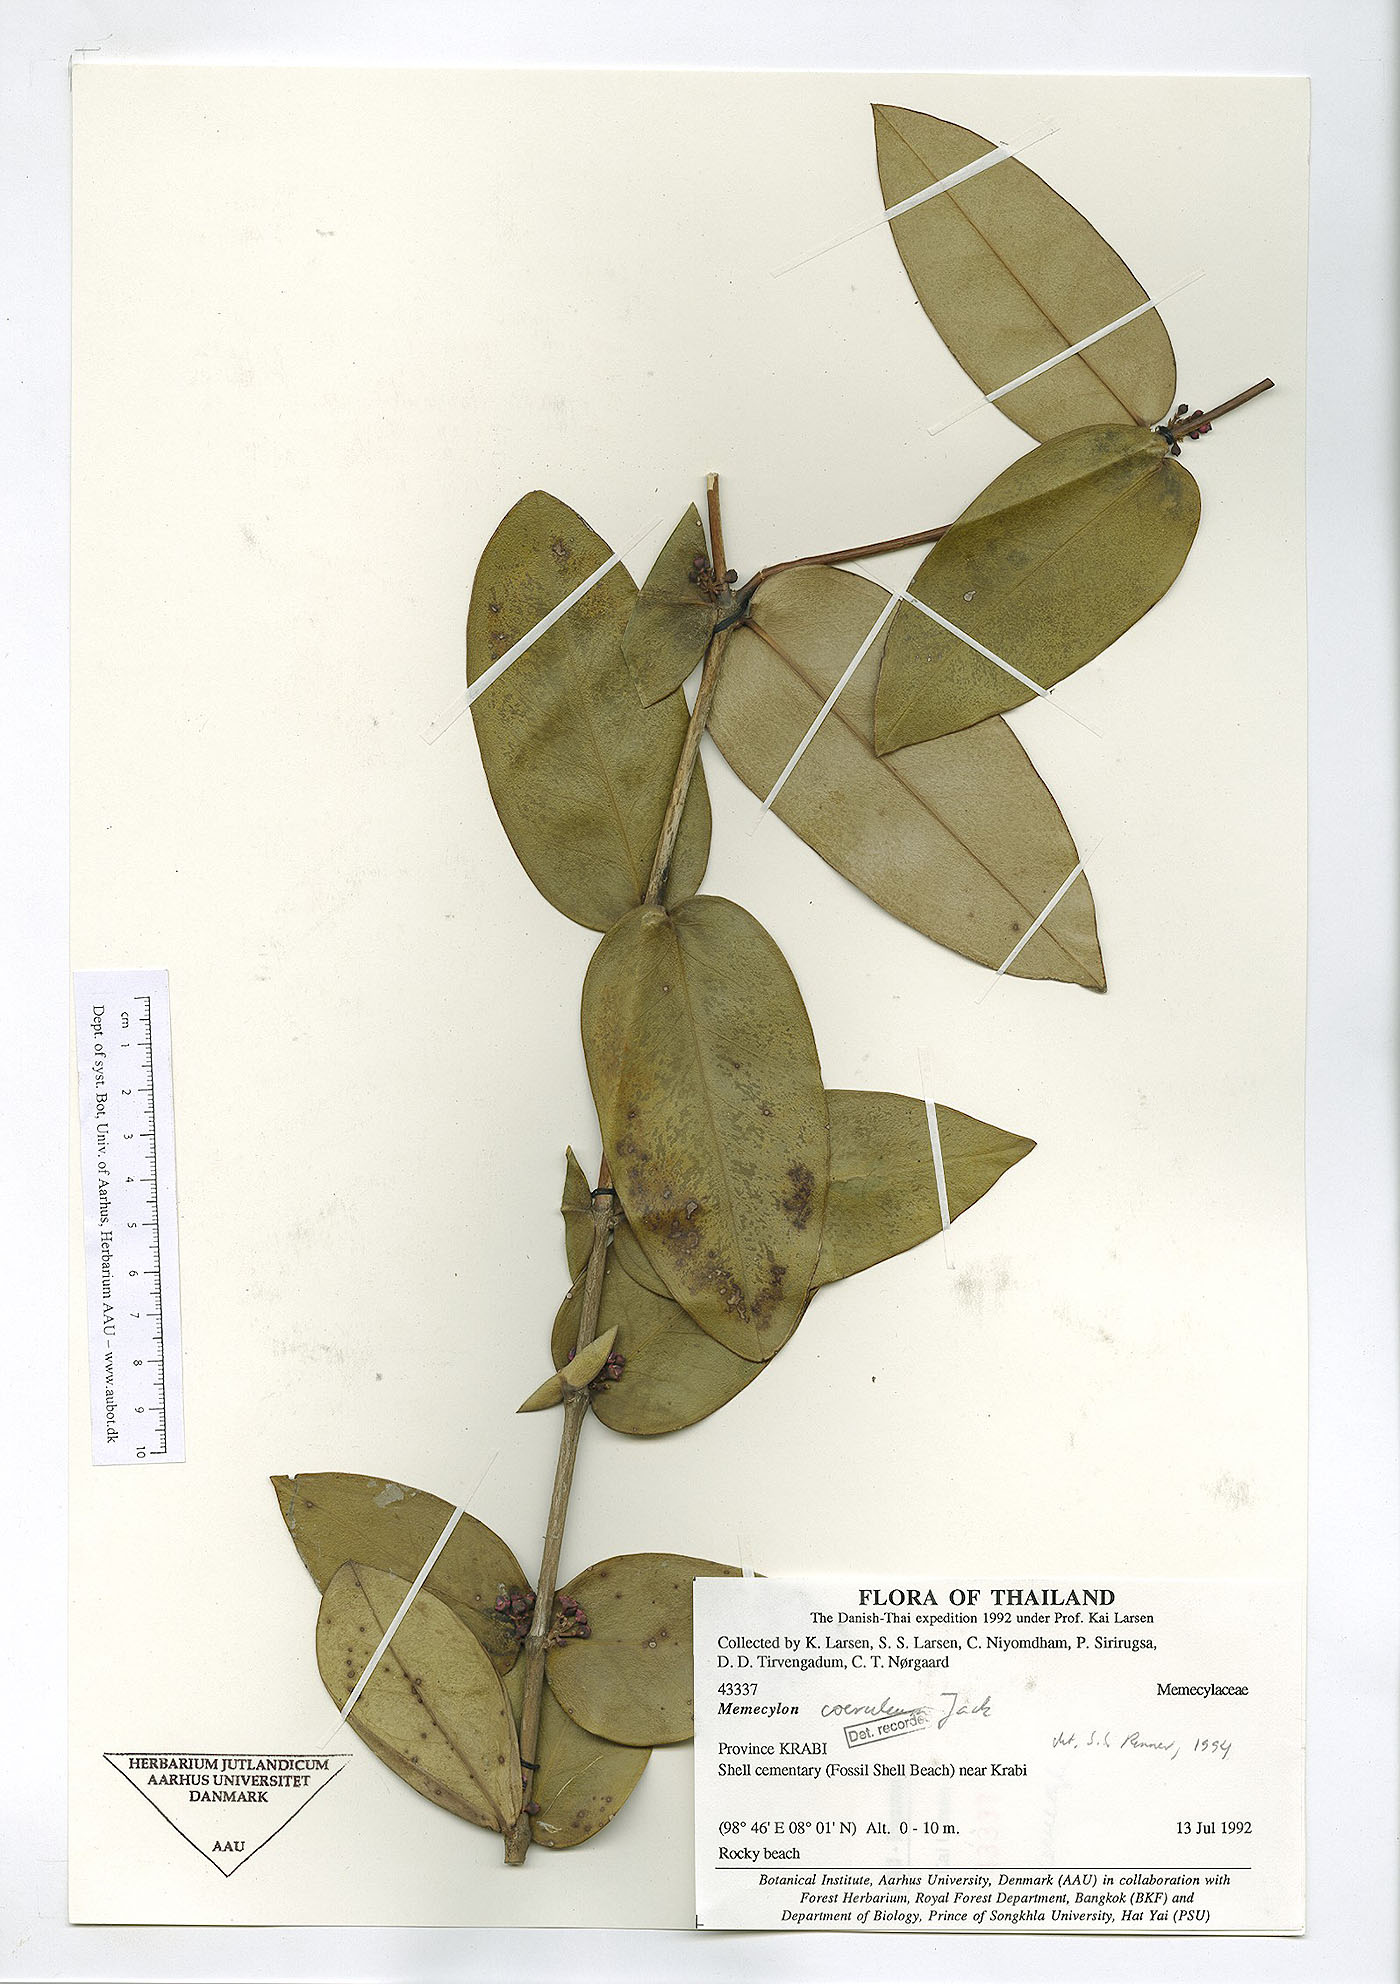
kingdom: Plantae
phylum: Tracheophyta
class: Magnoliopsida
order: Myrtales
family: Melastomataceae
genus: Memecylon
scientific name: Memecylon caeruleum
